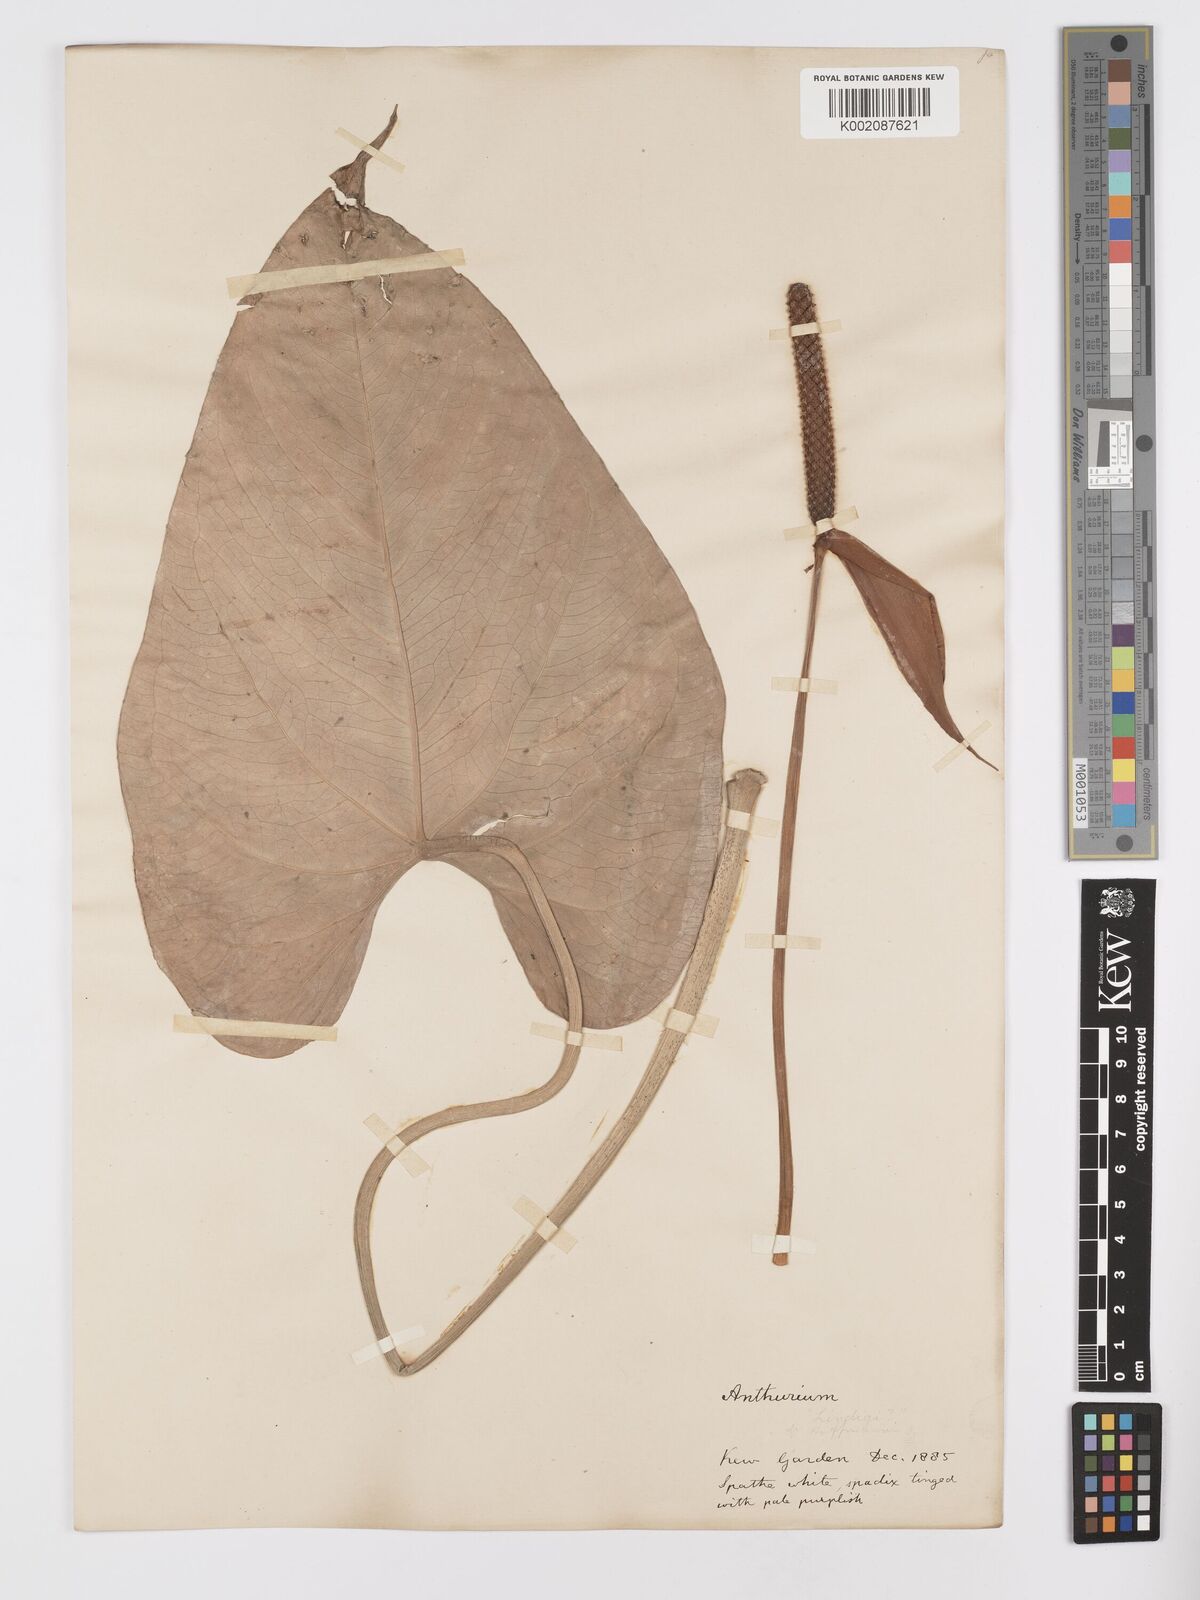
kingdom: Plantae
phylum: Tracheophyta
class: Liliopsida
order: Alismatales
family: Araceae
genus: Anthurium
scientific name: Anthurium hoffmannii
